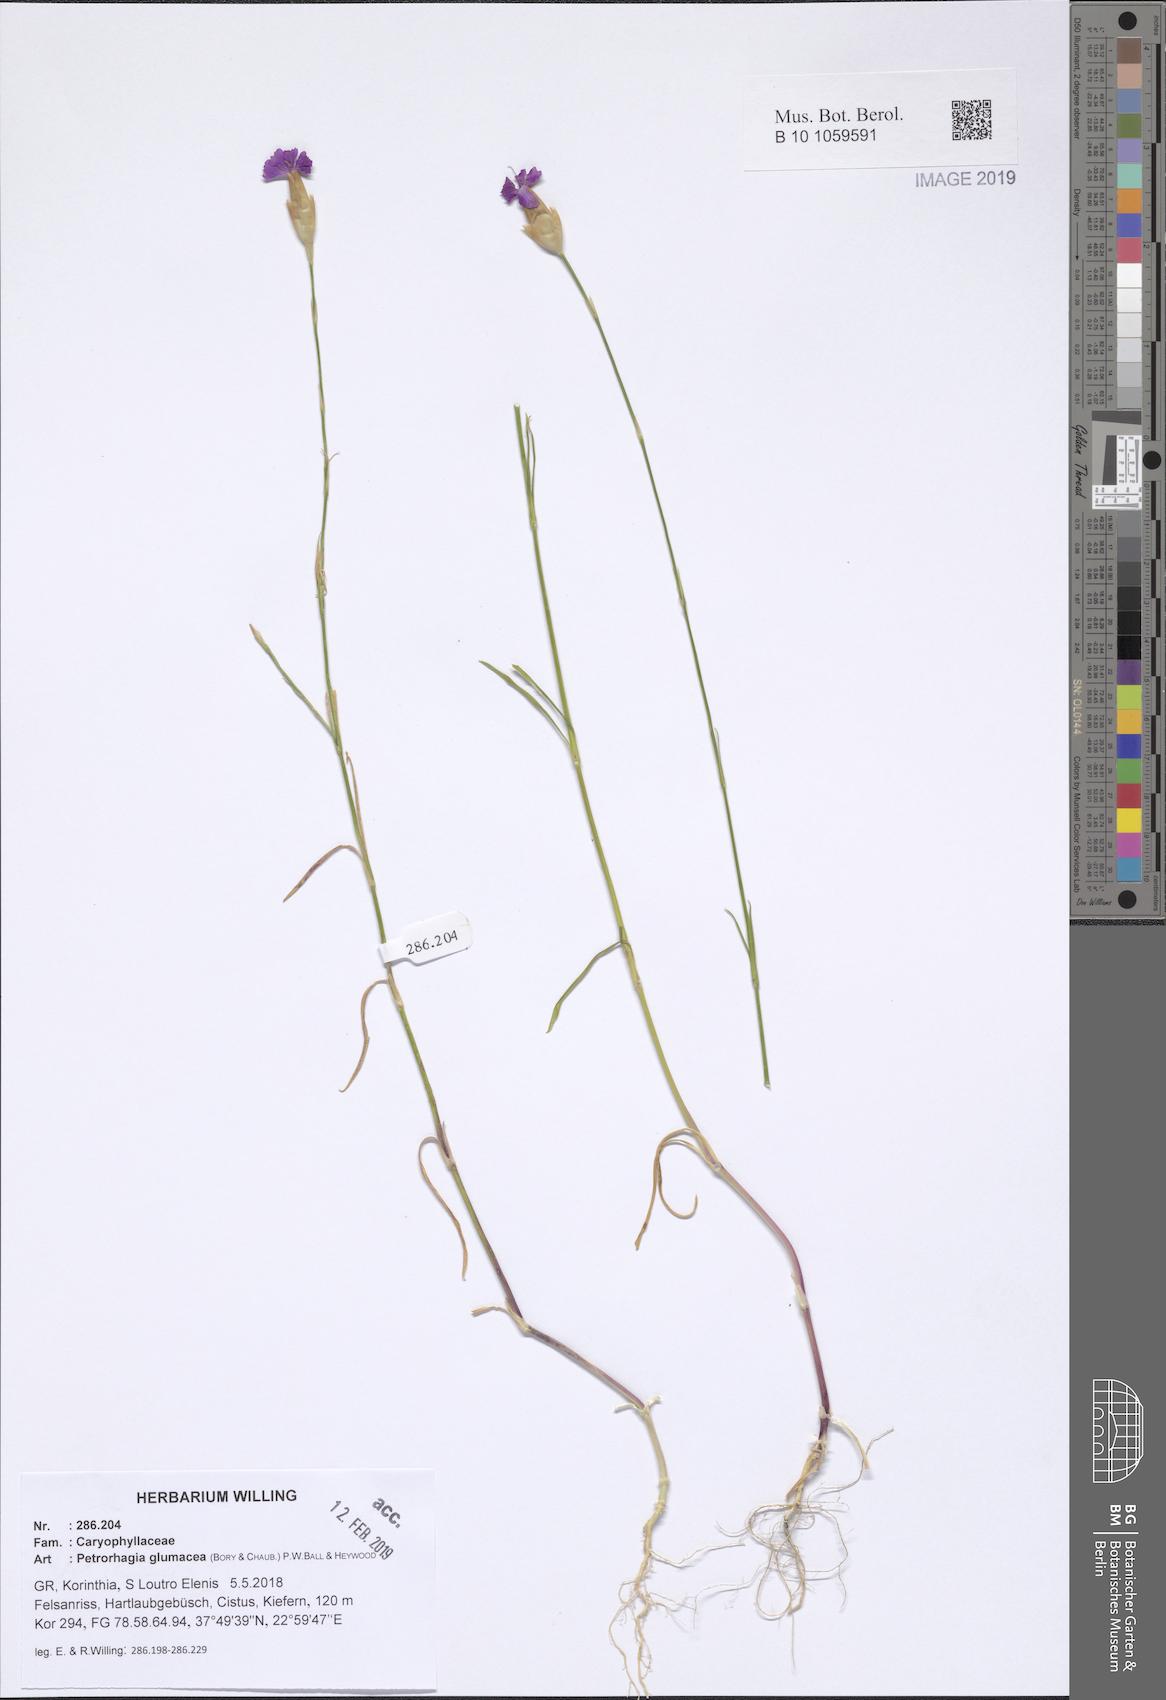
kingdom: Plantae
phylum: Tracheophyta
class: Magnoliopsida
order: Caryophyllales
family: Caryophyllaceae
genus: Petrorhagia
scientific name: Petrorhagia glumacea
